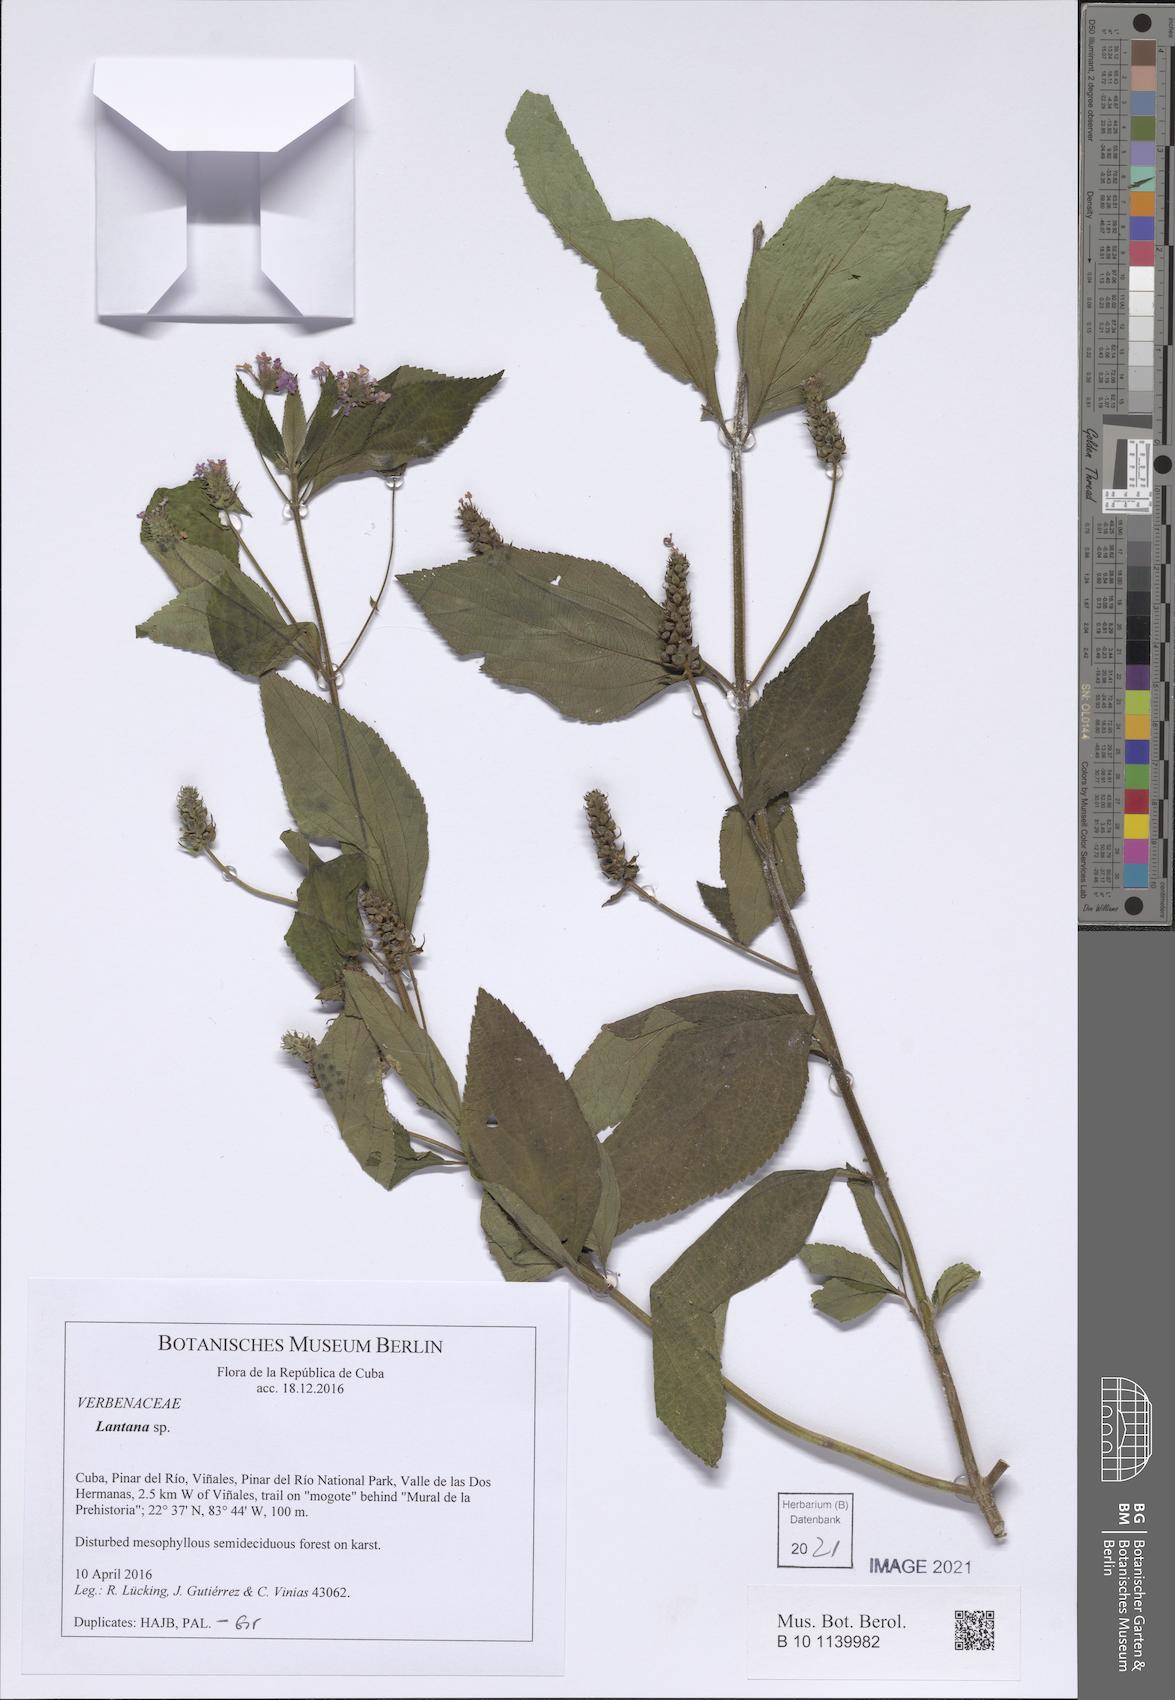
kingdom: Plantae
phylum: Tracheophyta
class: Magnoliopsida
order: Lamiales
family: Verbenaceae
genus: Lantana
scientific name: Lantana trifolia
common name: Sweet-sage
